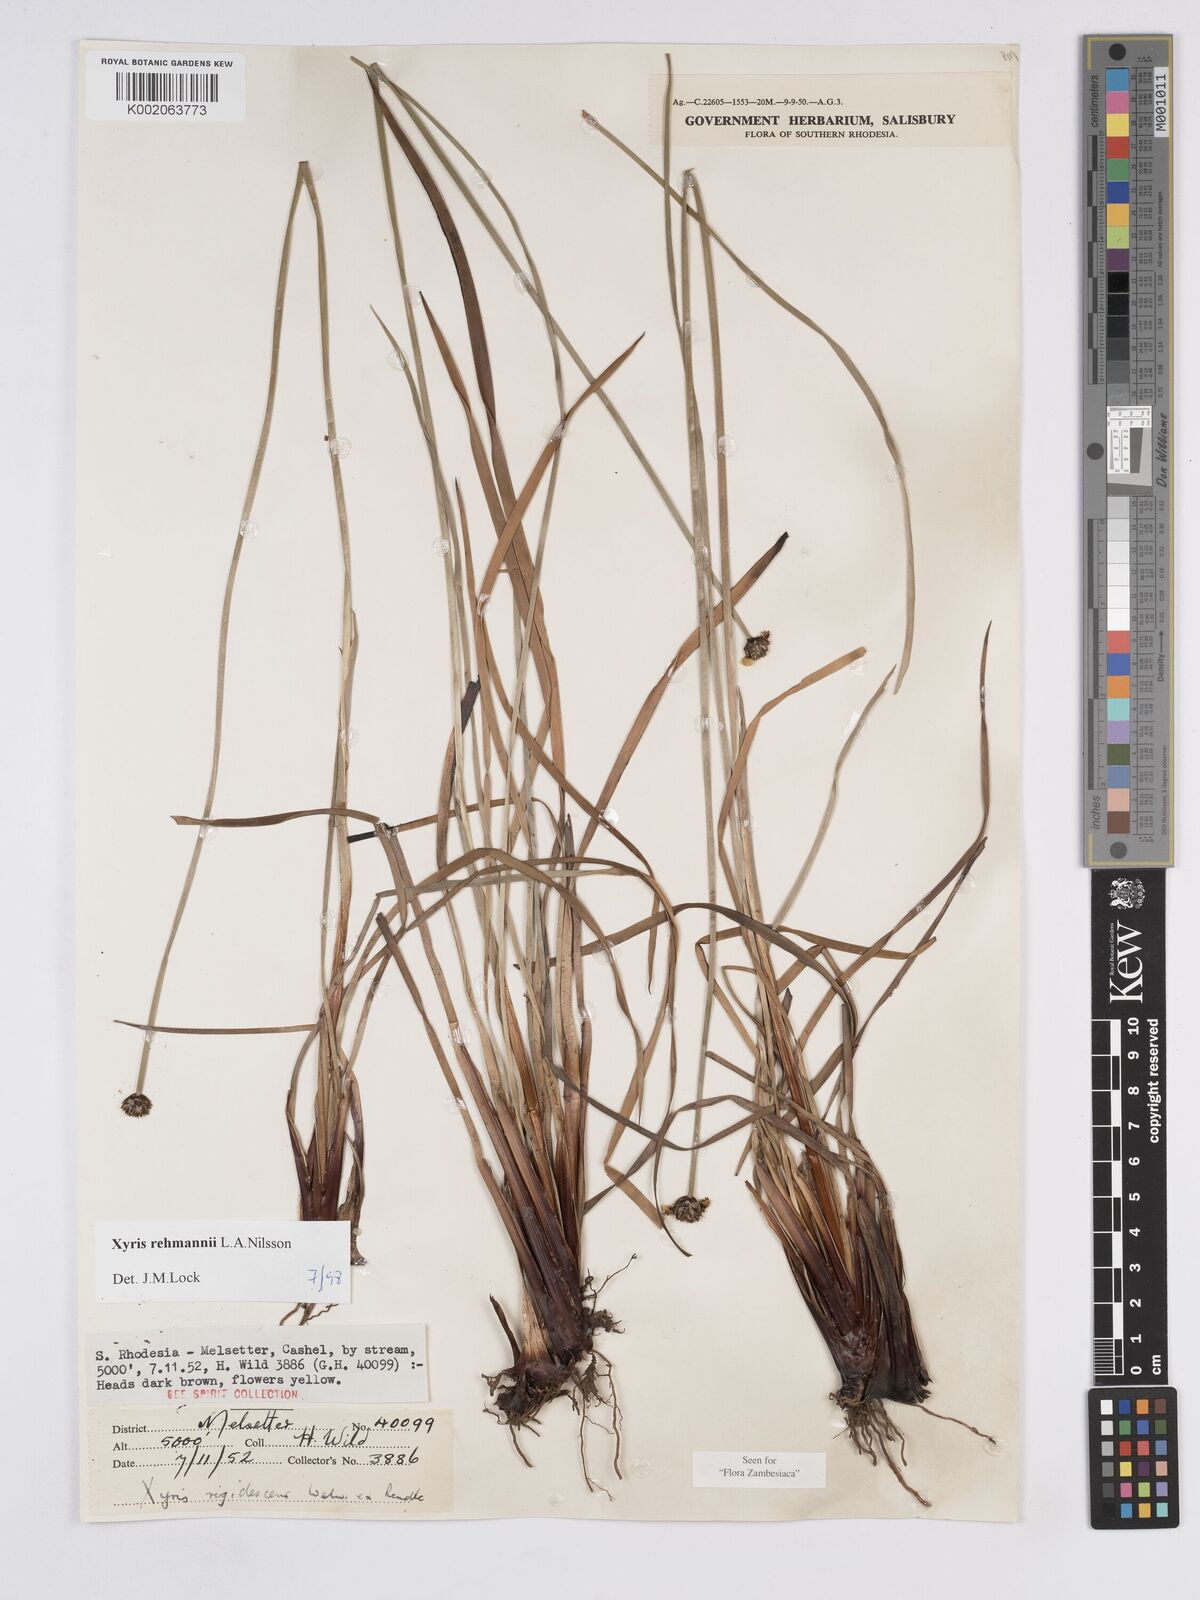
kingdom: Plantae
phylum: Tracheophyta
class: Liliopsida
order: Poales
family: Xyridaceae
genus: Xyris
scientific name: Xyris rehmannii
